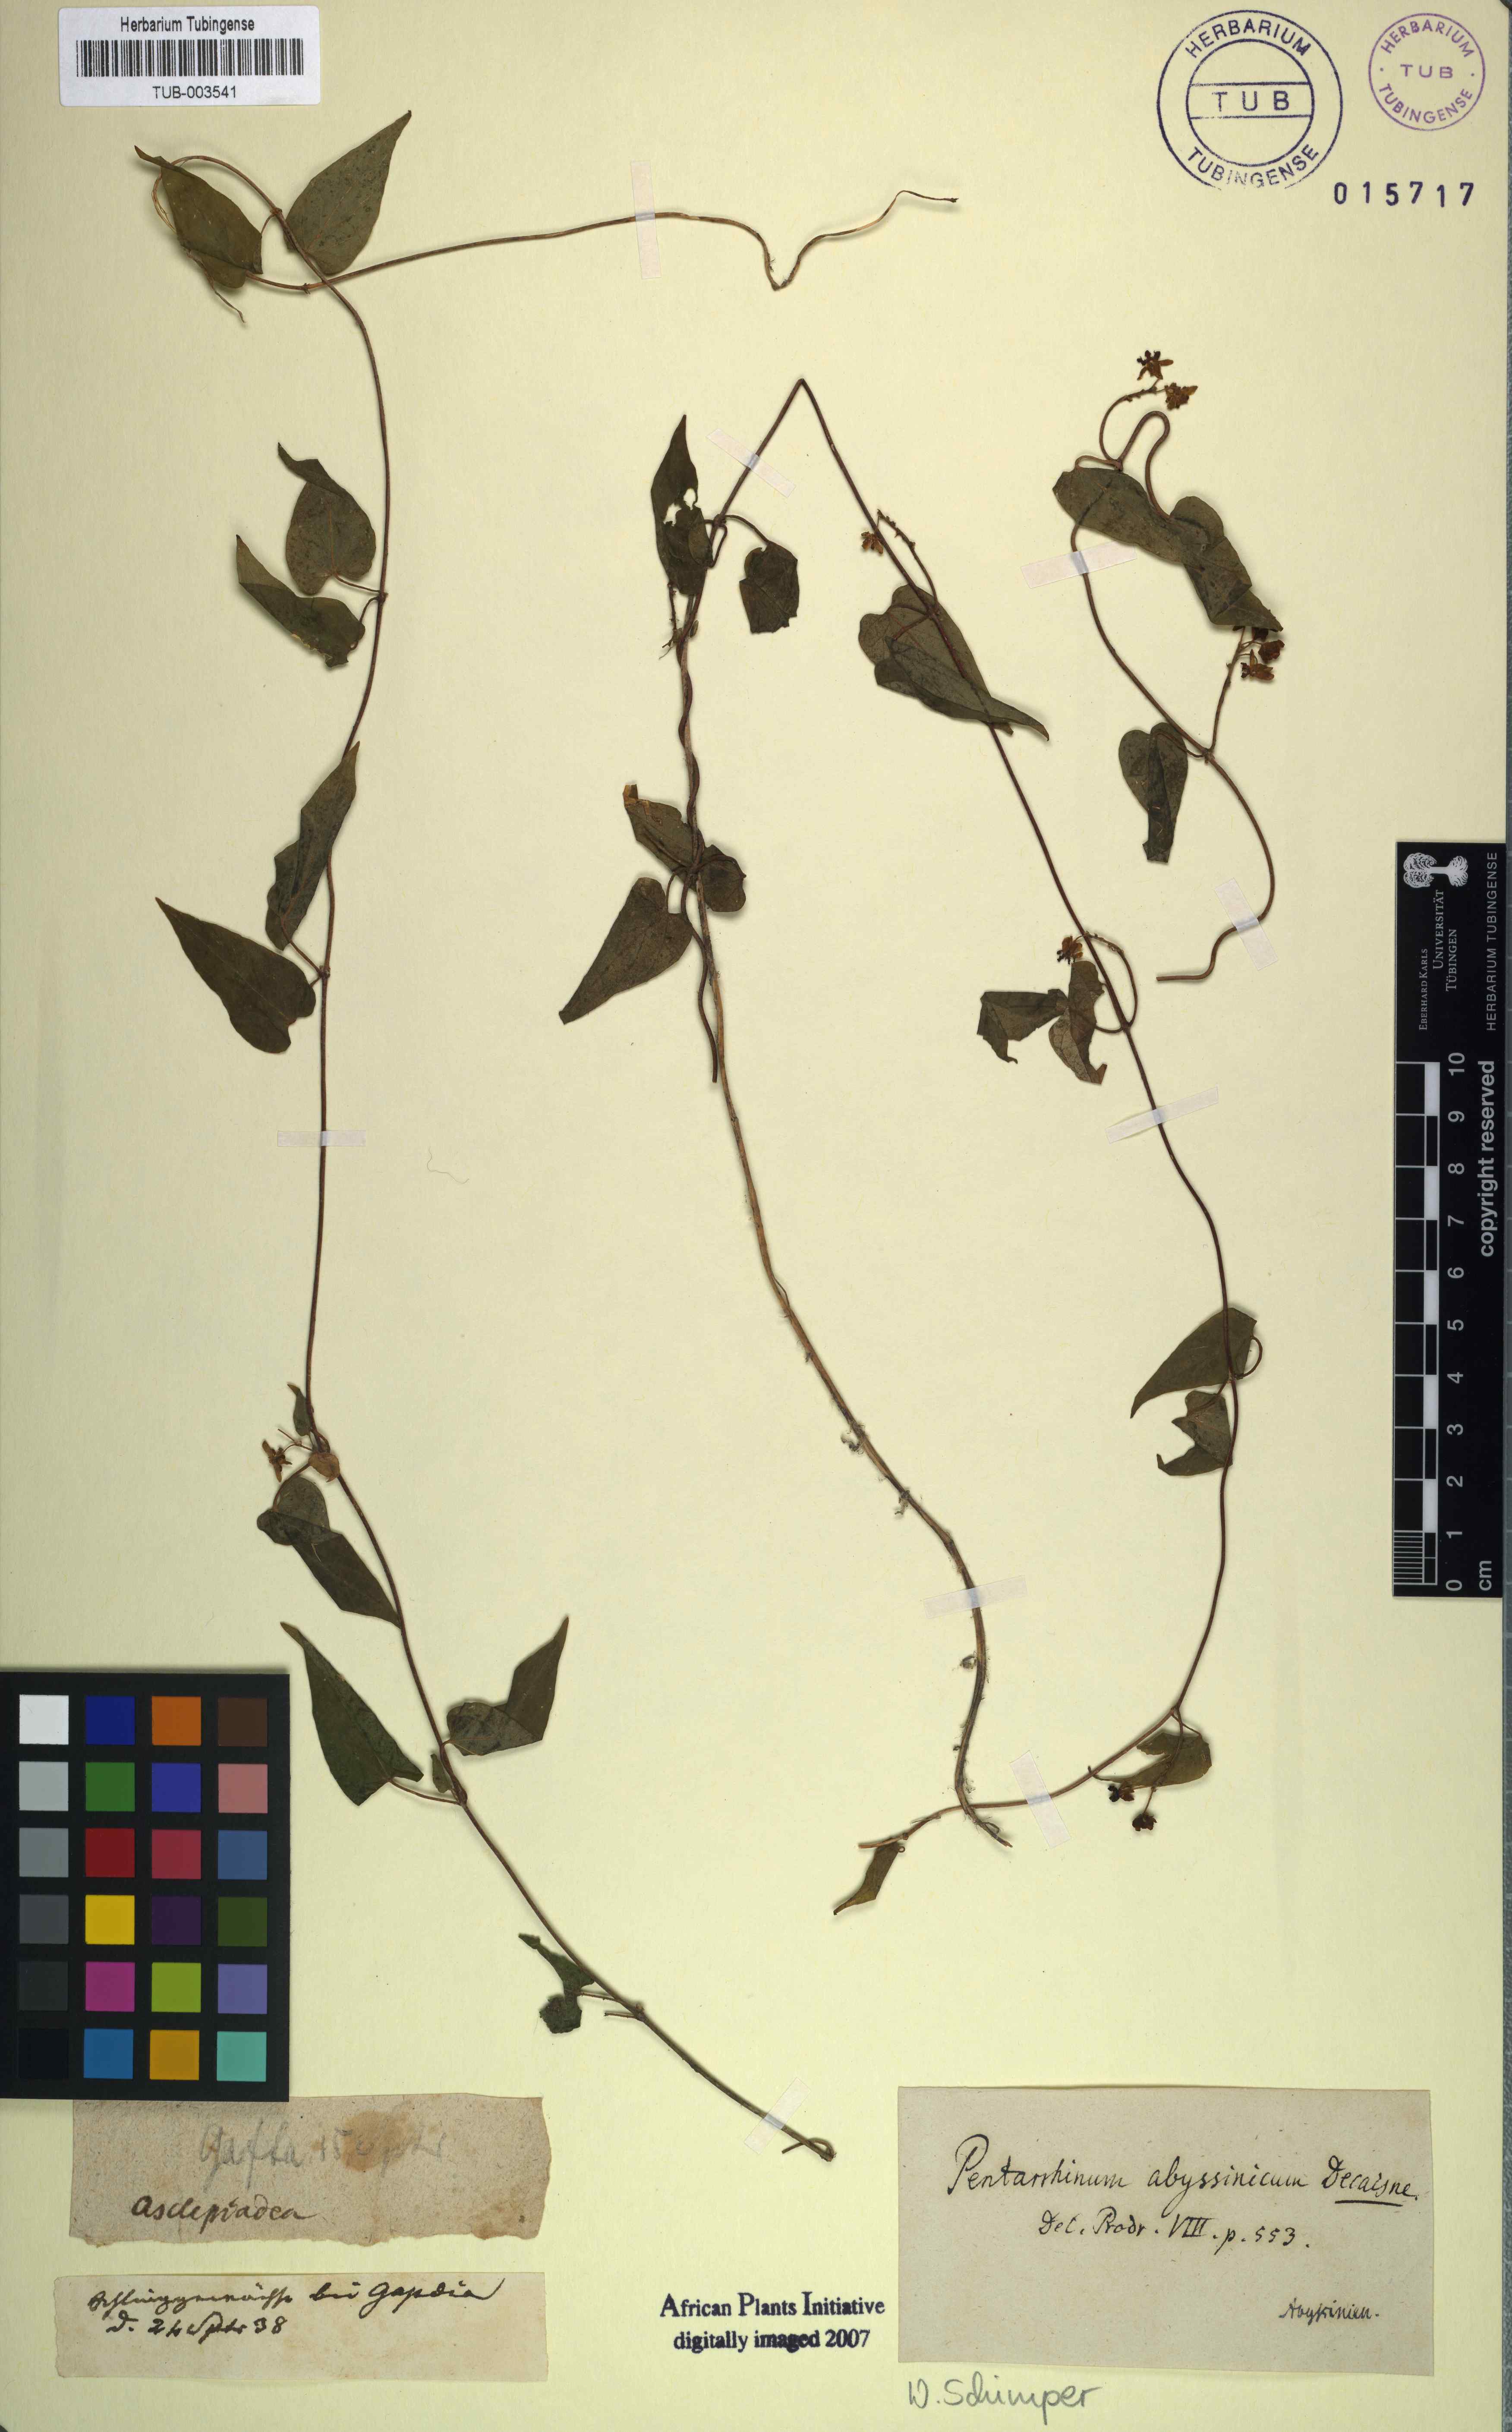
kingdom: Plantae
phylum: Tracheophyta
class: Magnoliopsida
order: Gentianales
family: Apocynaceae
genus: Cynanchum
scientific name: Cynanchum ethiopicum
